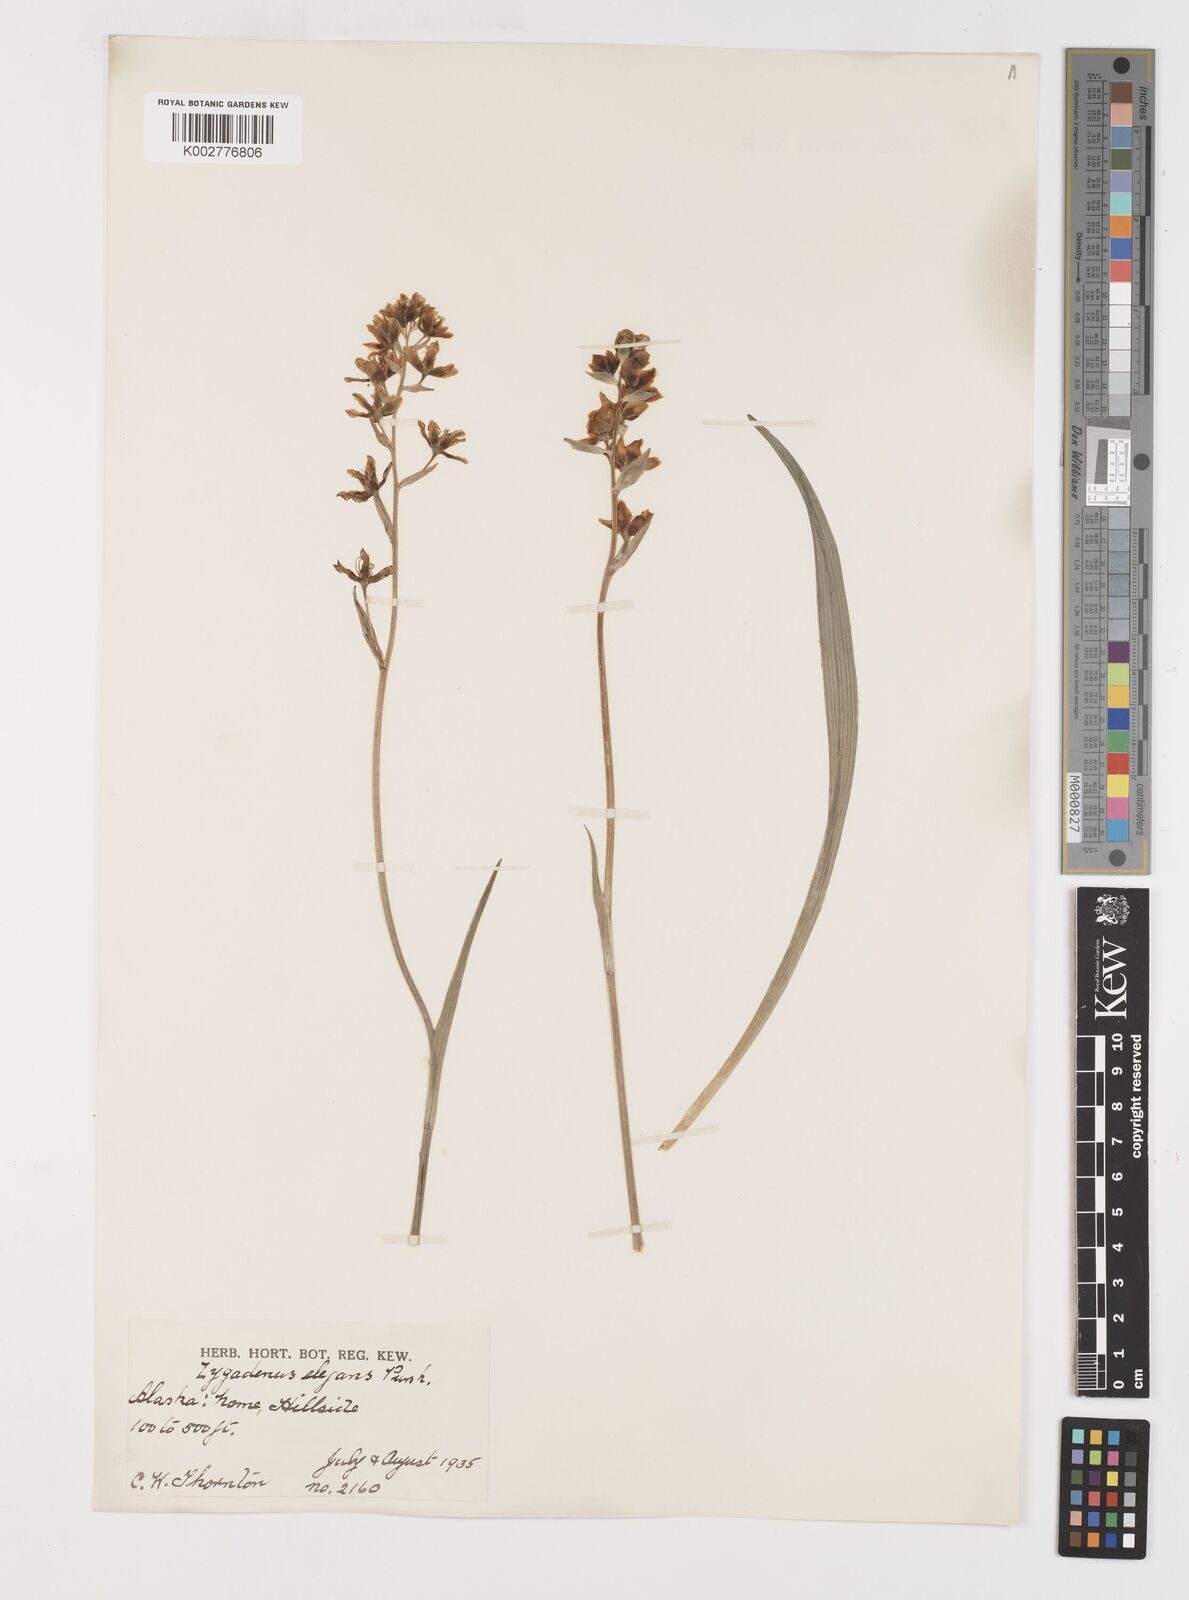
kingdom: Plantae
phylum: Tracheophyta
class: Liliopsida
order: Liliales
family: Melanthiaceae
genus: Anticlea
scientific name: Anticlea elegans
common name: Mountain death camas
